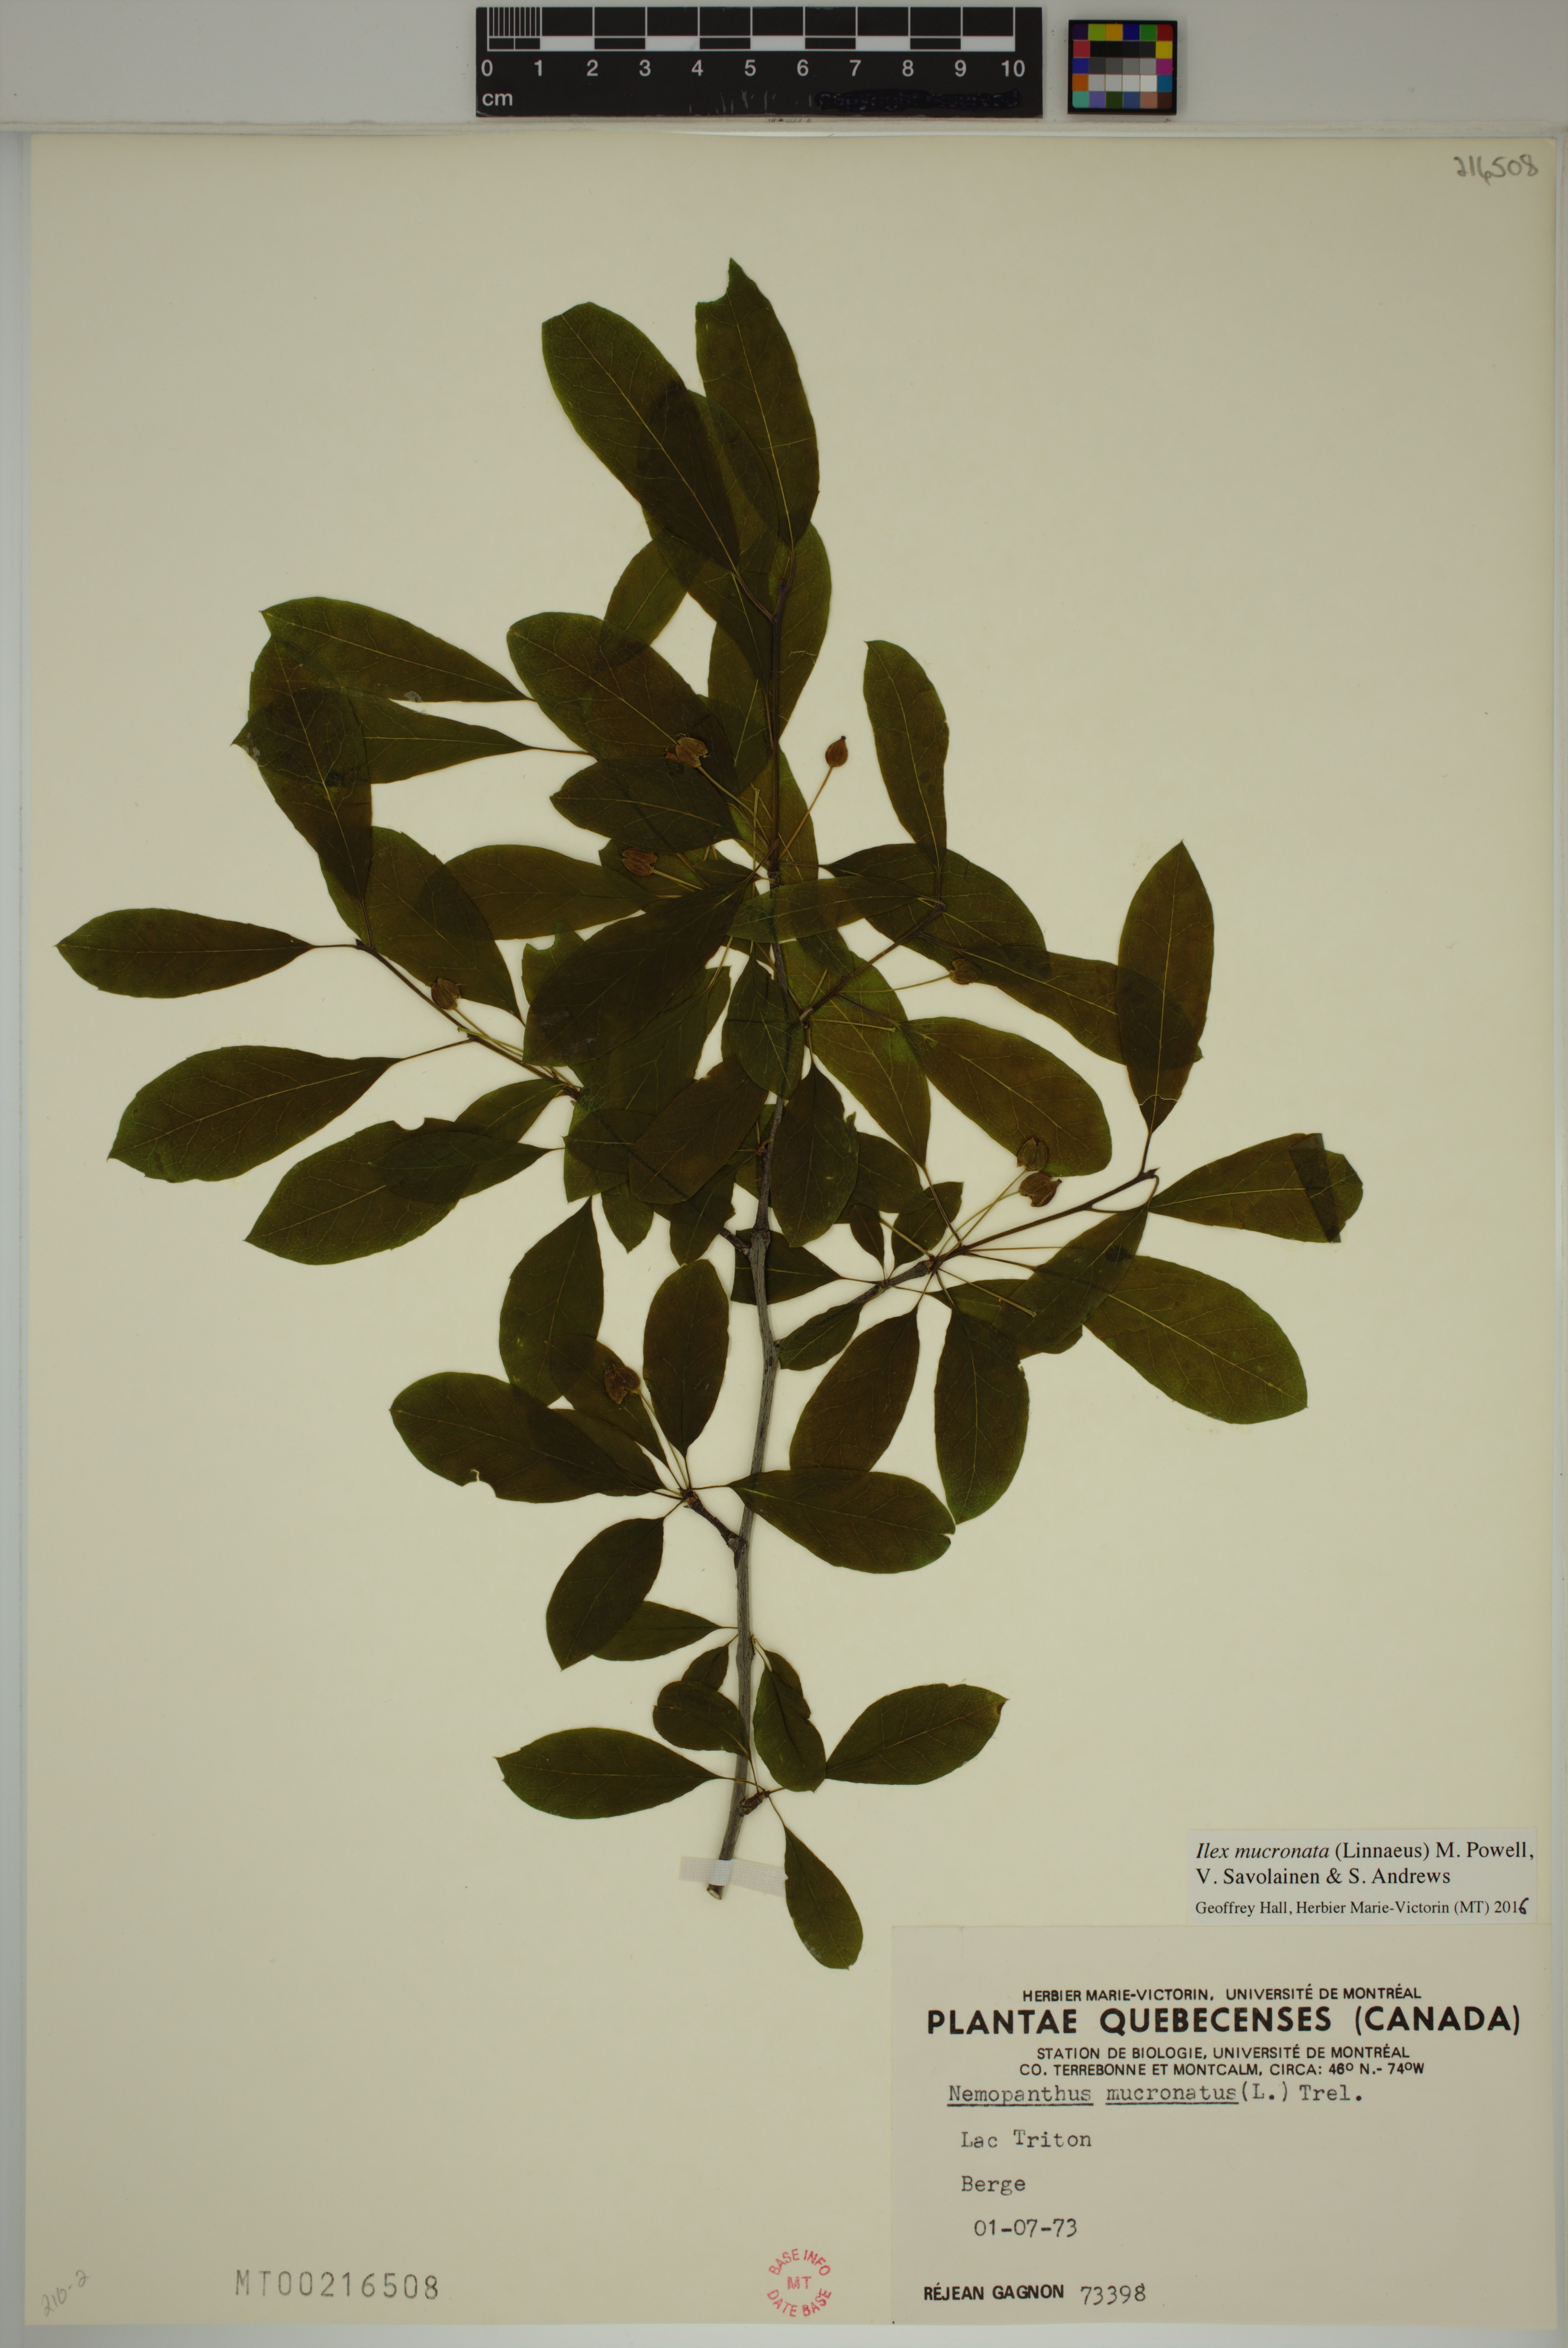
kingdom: Plantae
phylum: Tracheophyta
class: Magnoliopsida
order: Aquifoliales
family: Aquifoliaceae
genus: Ilex
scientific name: Ilex mucronata
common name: Catberry
